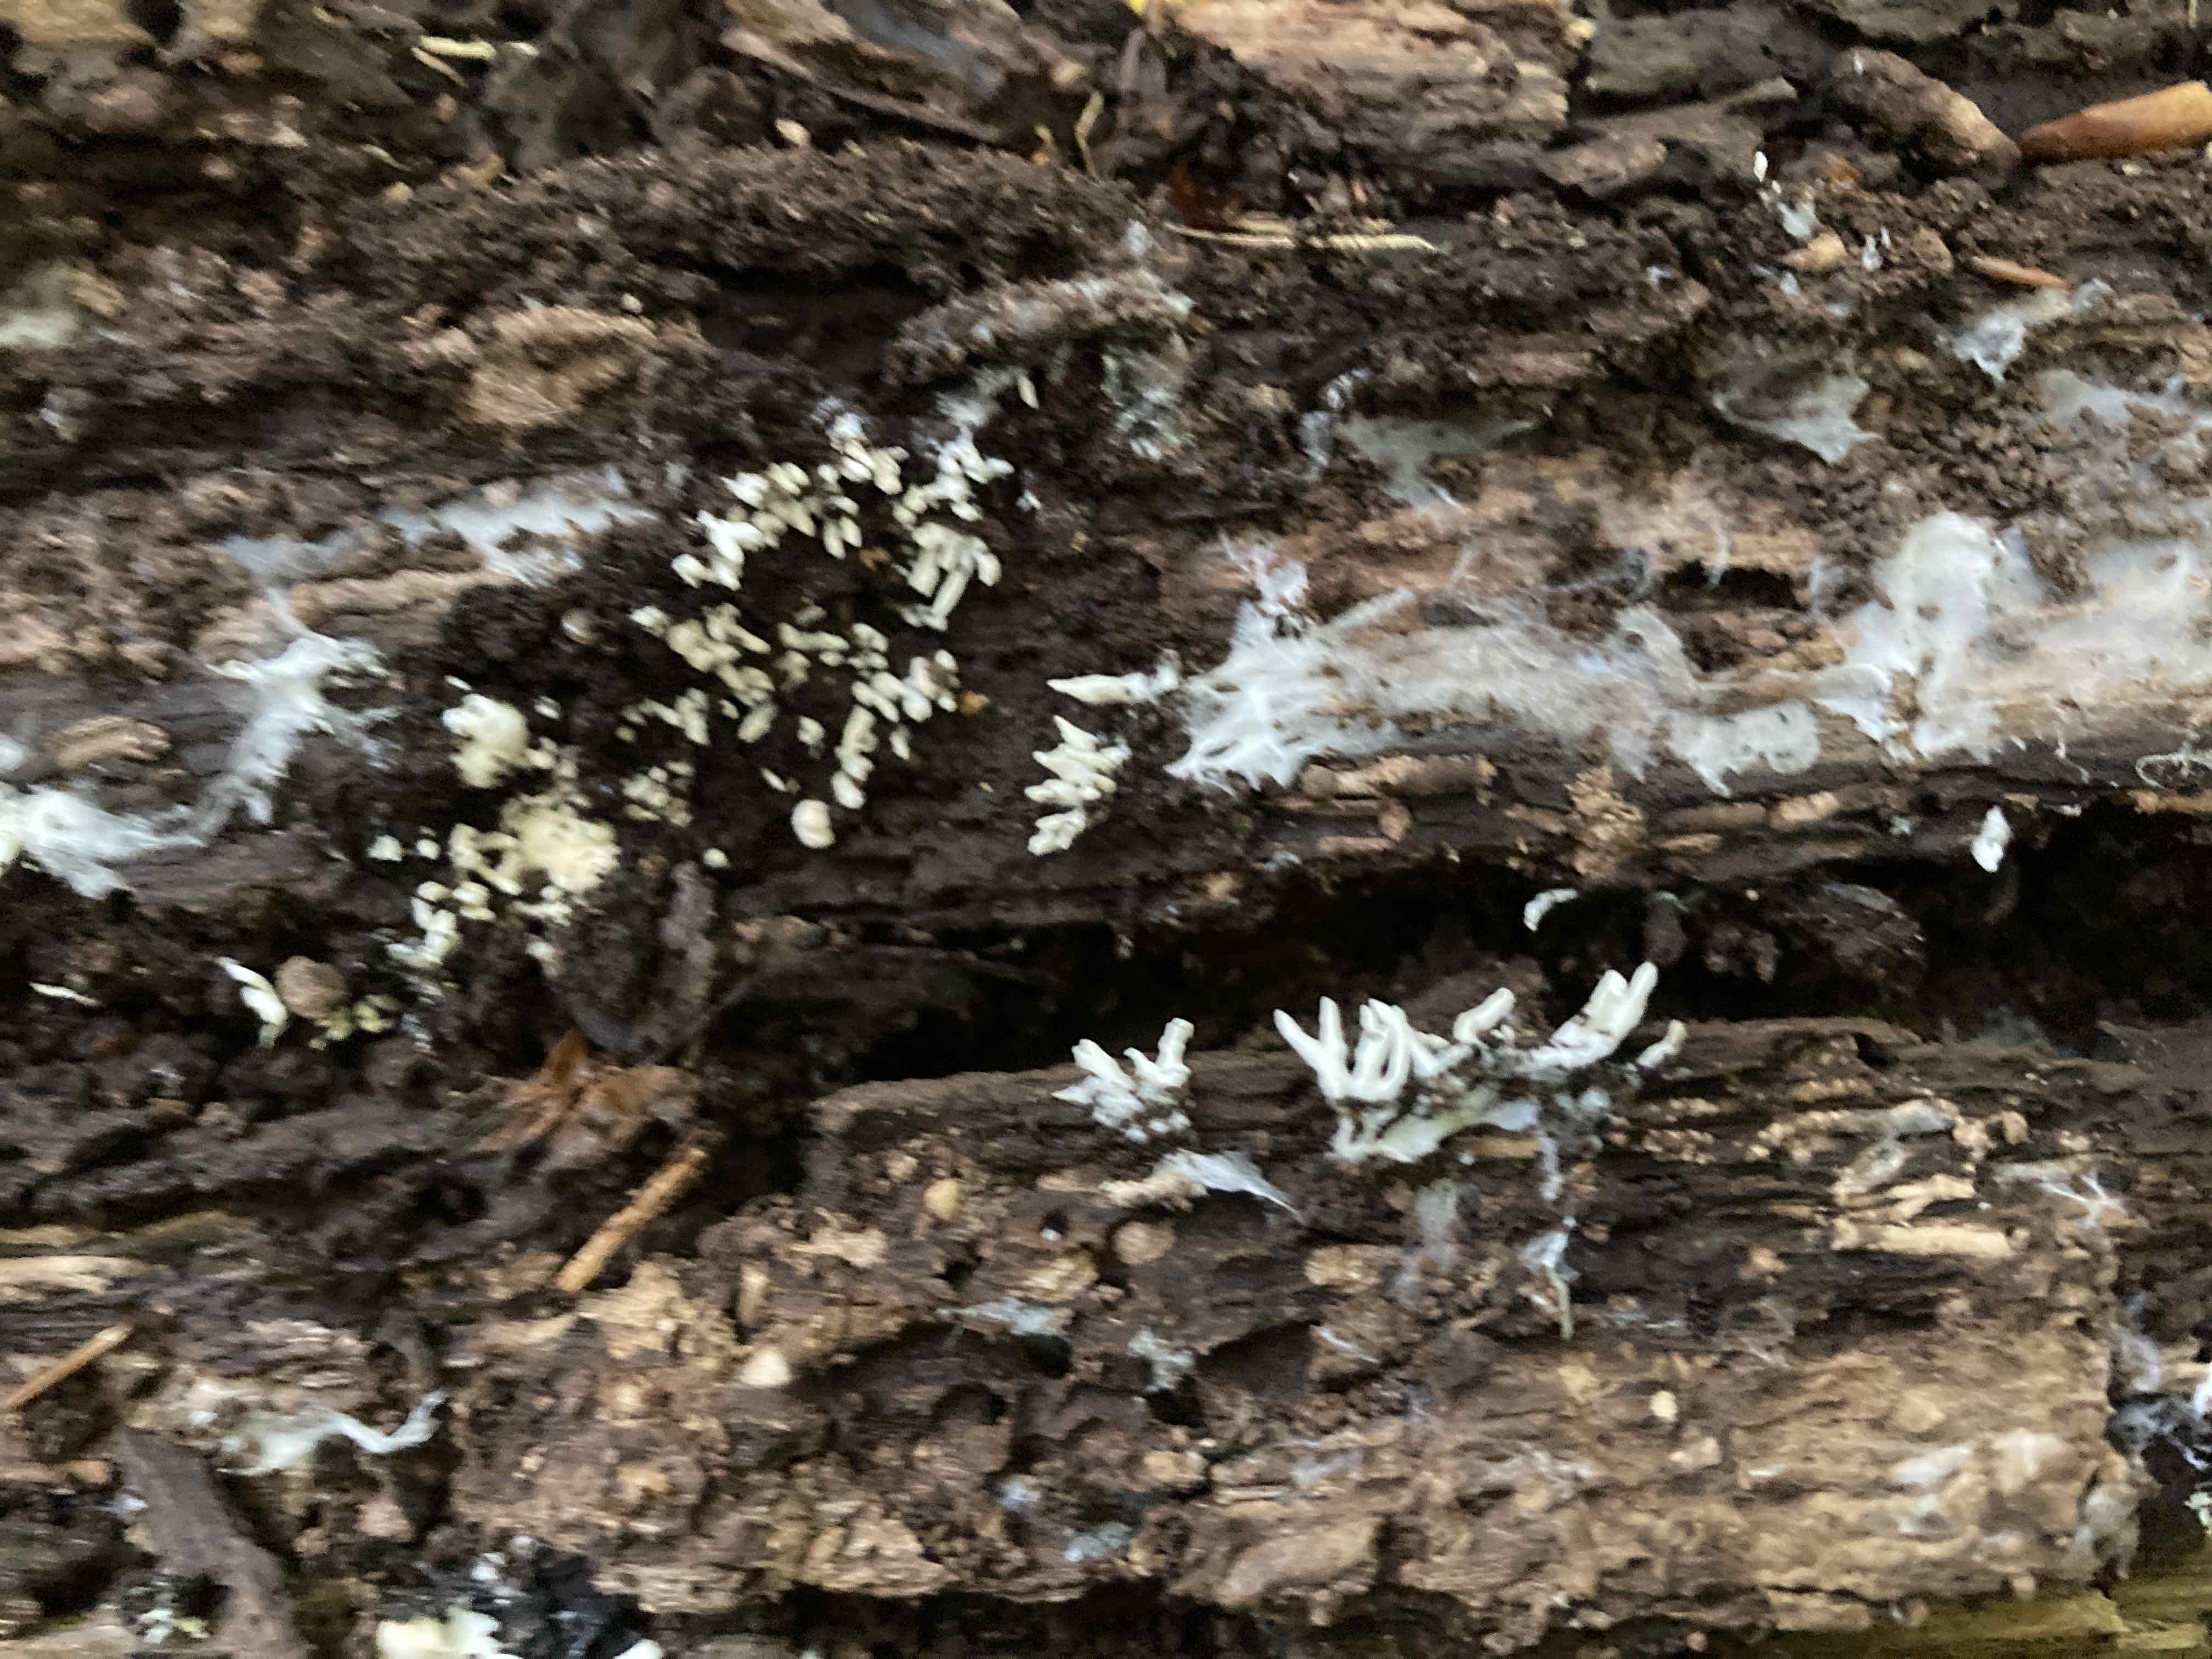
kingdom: Fungi
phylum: Ascomycota
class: Sordariomycetes
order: Hypocreales
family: Cordycipitaceae
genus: Cordyceps
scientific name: Cordyceps
